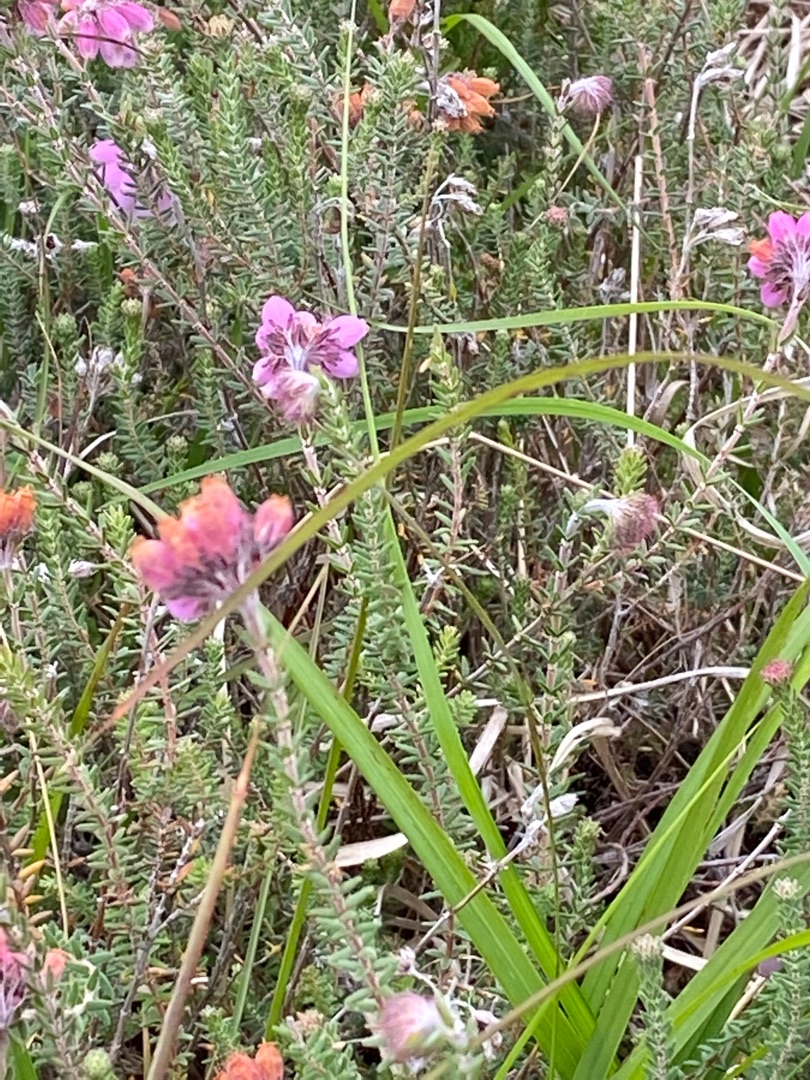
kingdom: Plantae
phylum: Tracheophyta
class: Magnoliopsida
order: Ericales
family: Ericaceae
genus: Erica
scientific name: Erica tetralix
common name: Klokkelyng
